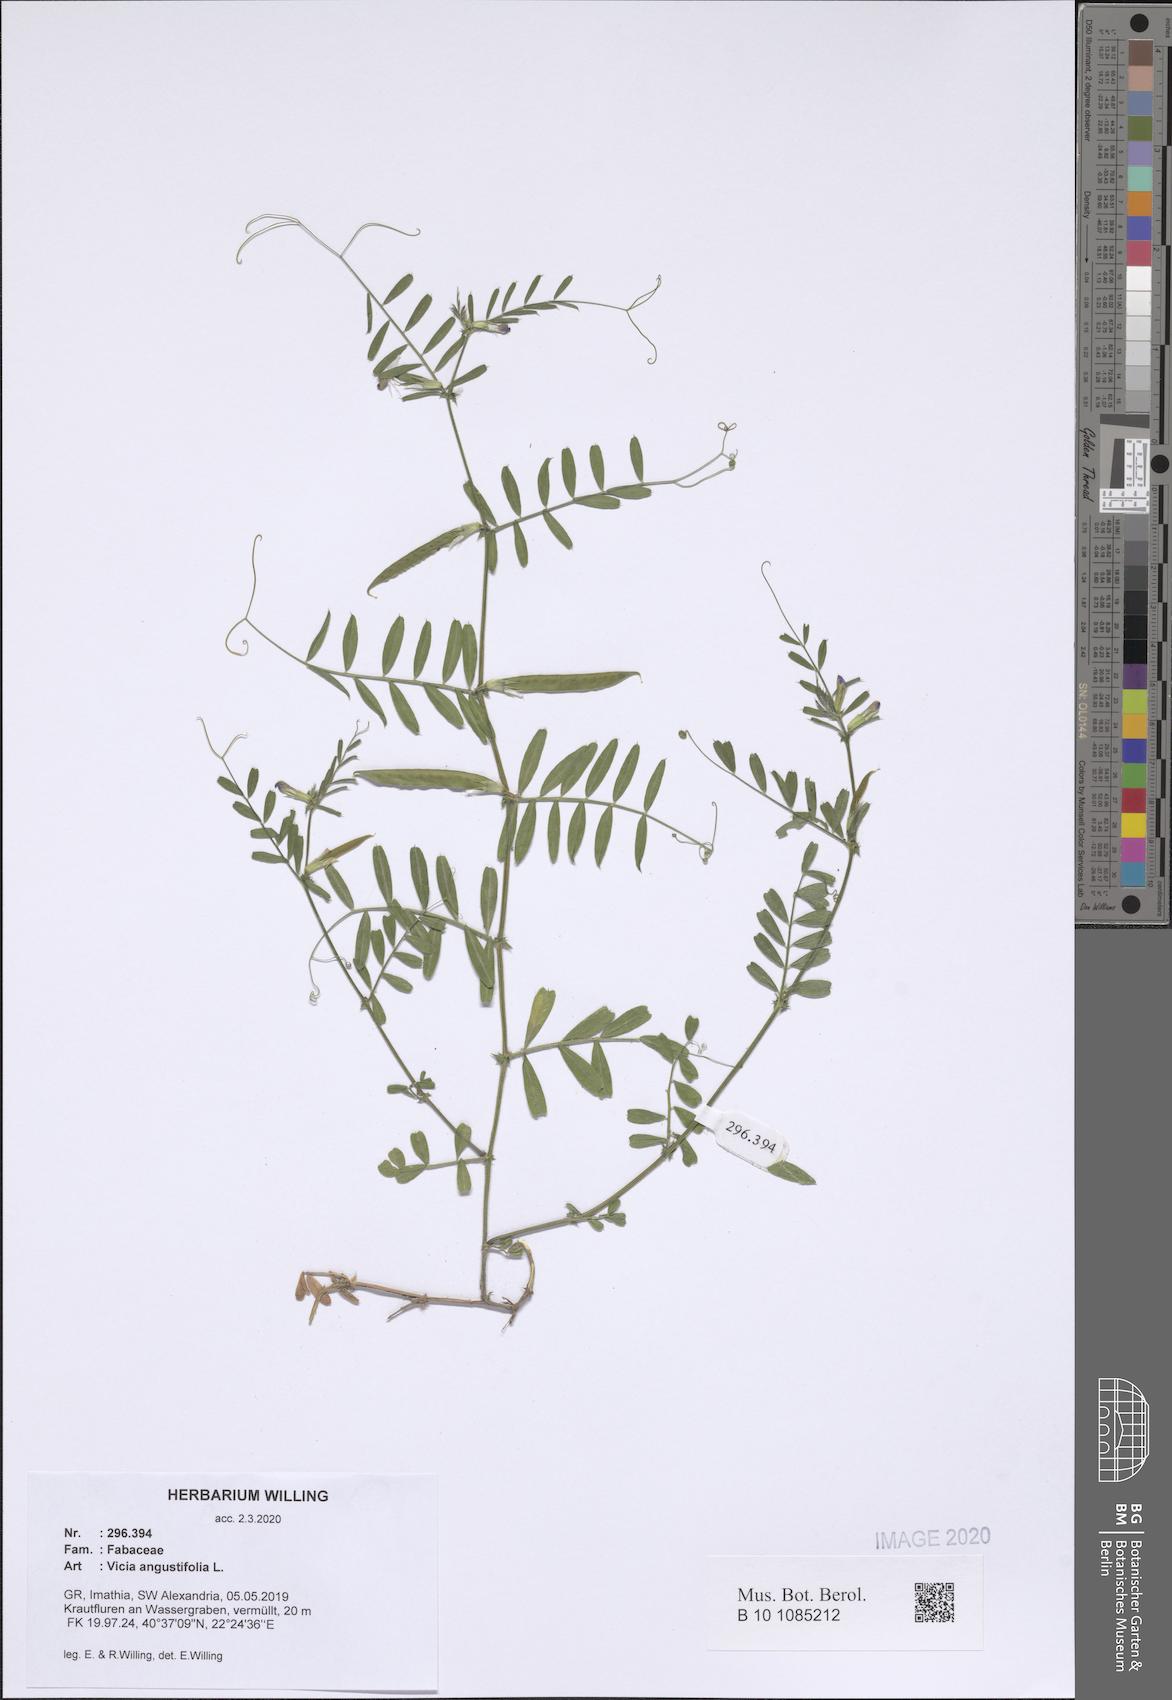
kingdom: Plantae
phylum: Tracheophyta
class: Magnoliopsida
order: Fabales
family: Fabaceae
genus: Vicia
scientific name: Vicia sativa
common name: Garden vetch
